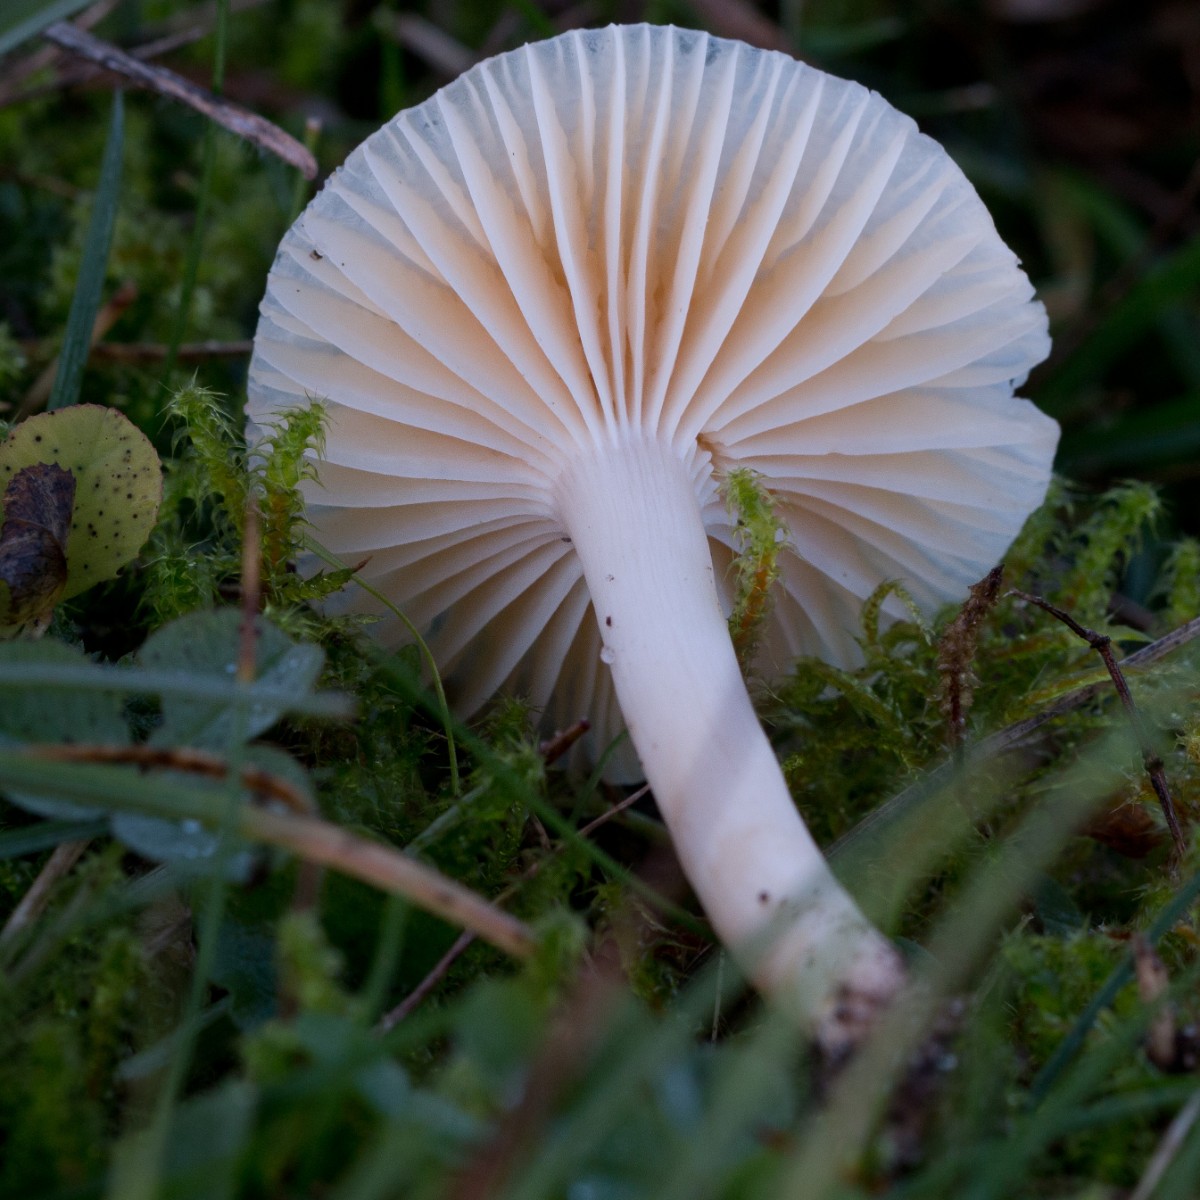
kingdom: Fungi
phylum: Basidiomycota
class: Agaricomycetes
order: Agaricales
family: Hygrophoraceae
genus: Cuphophyllus
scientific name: Cuphophyllus pratensis
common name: eng-vokshat
